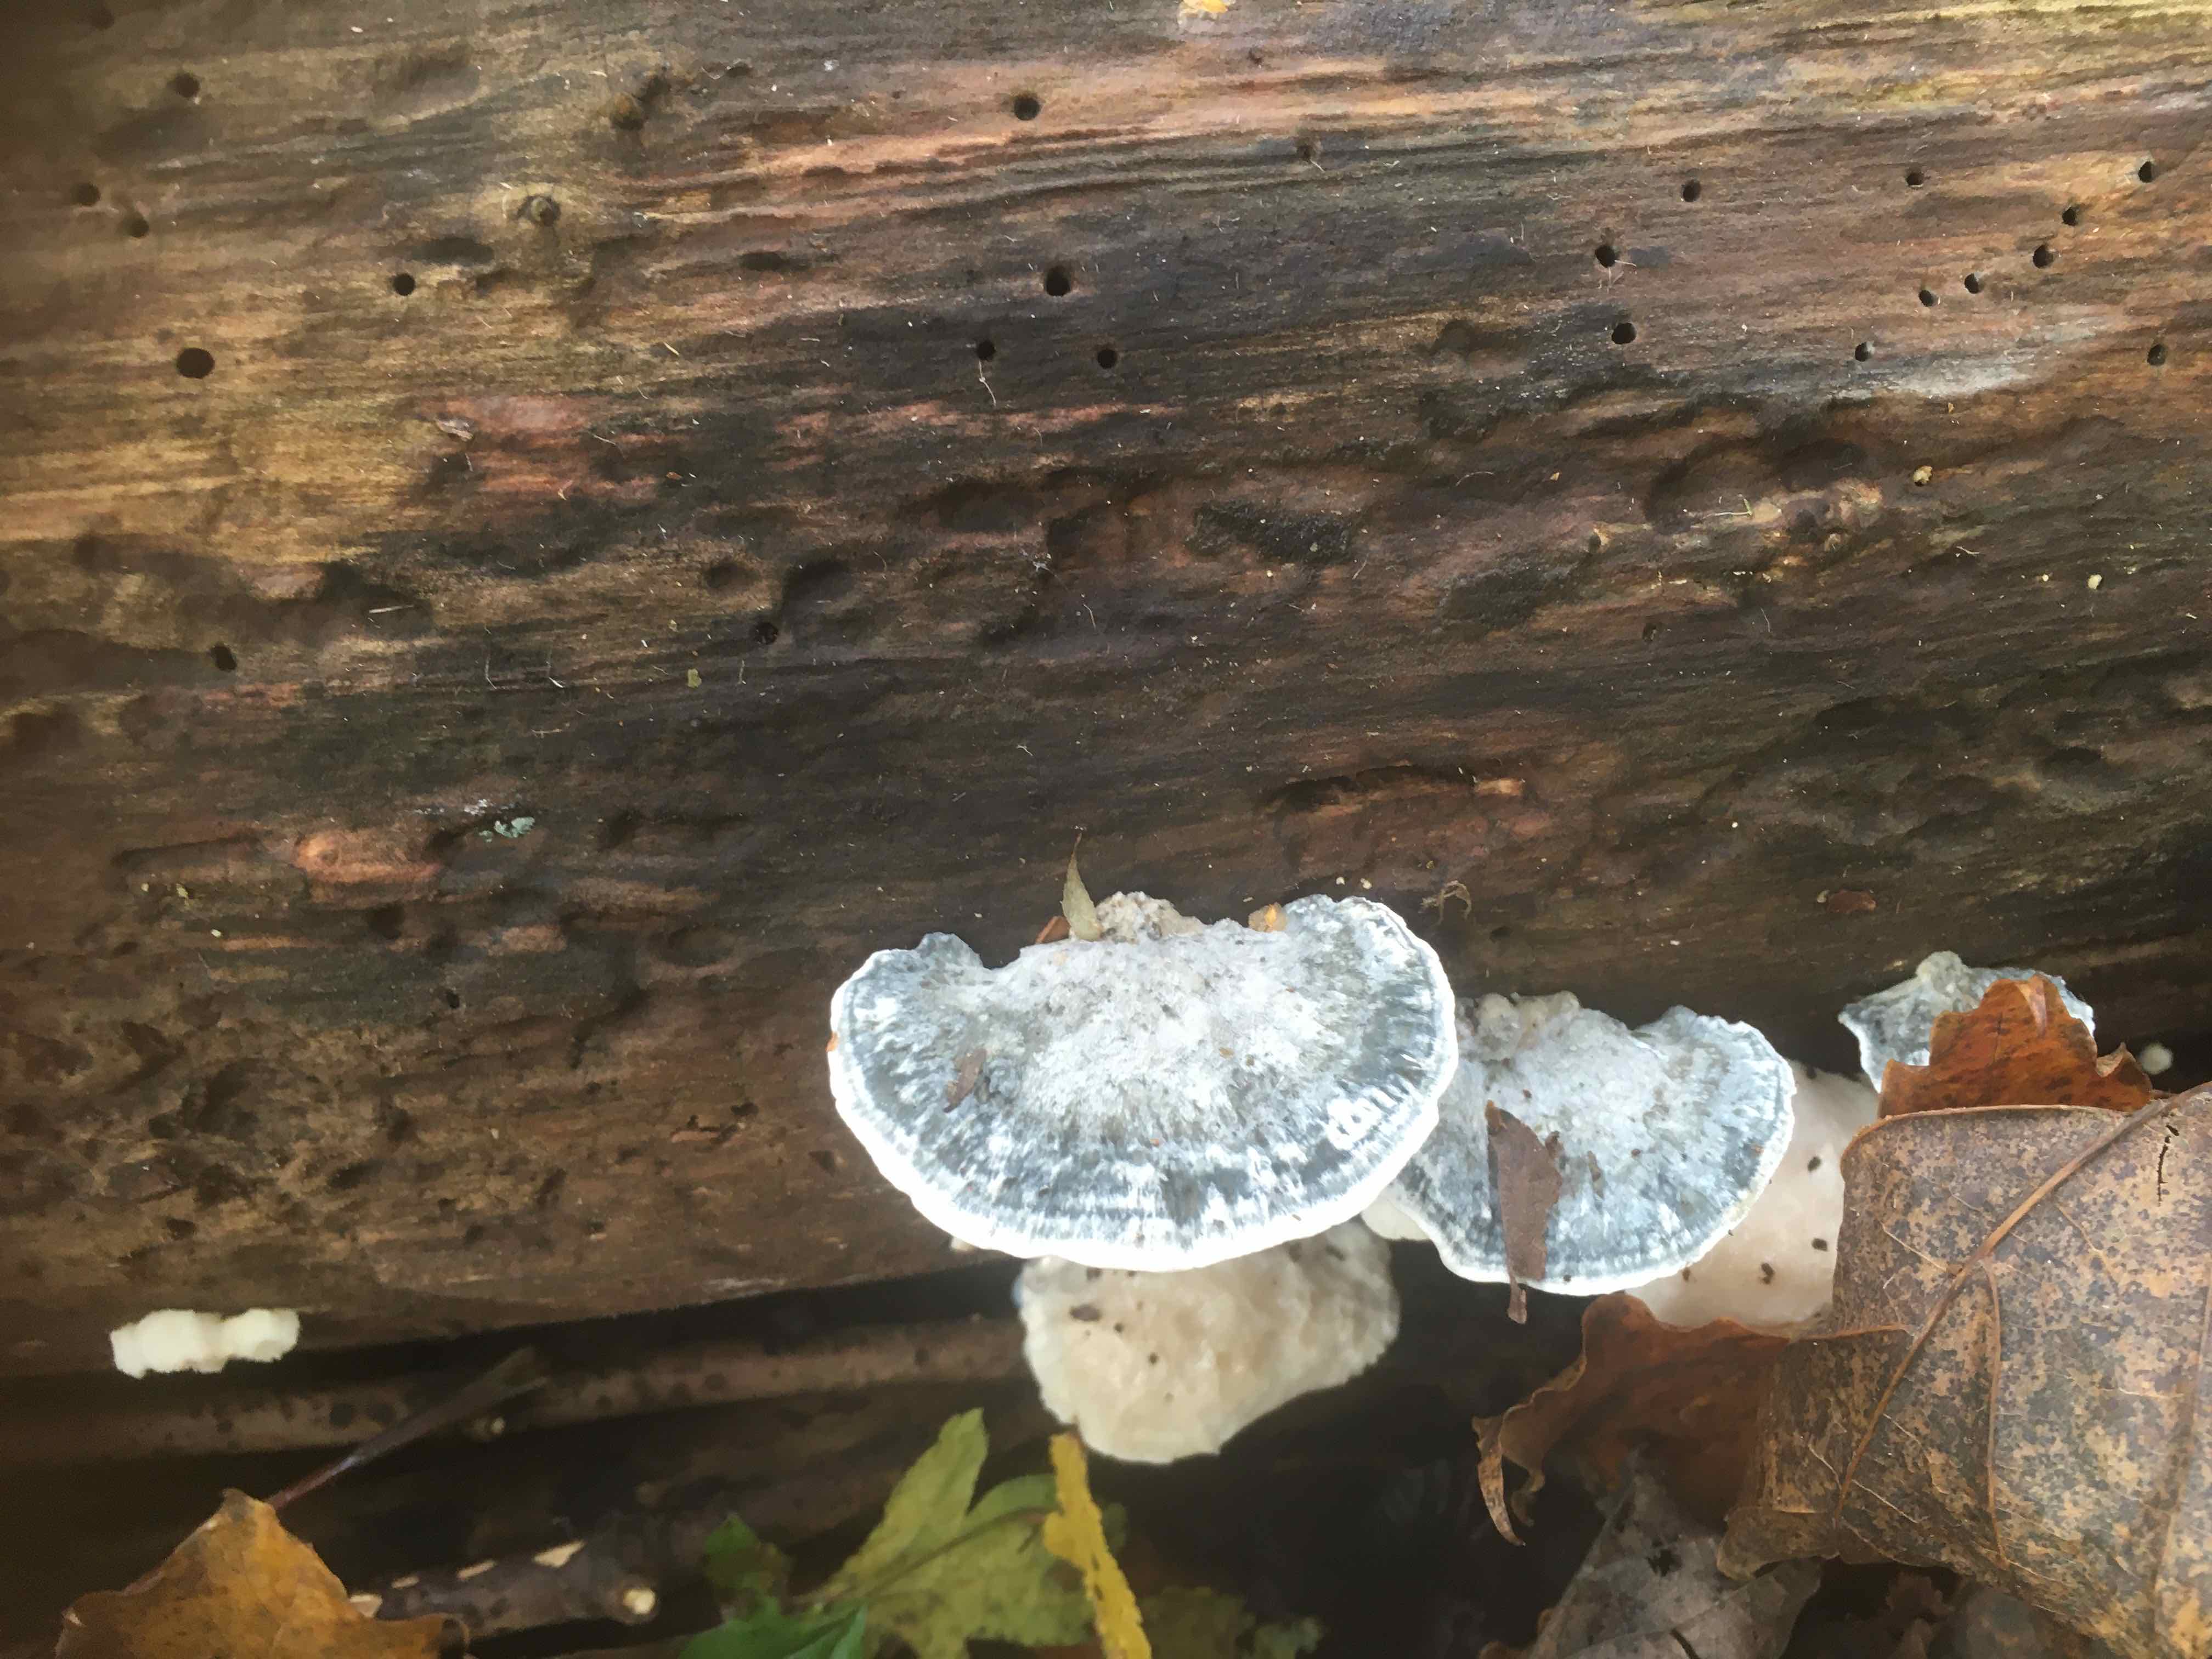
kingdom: Fungi
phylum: Basidiomycota
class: Agaricomycetes
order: Polyporales
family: Polyporaceae
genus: Cyanosporus
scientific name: Cyanosporus alni
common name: blegblå kødporesvamp
